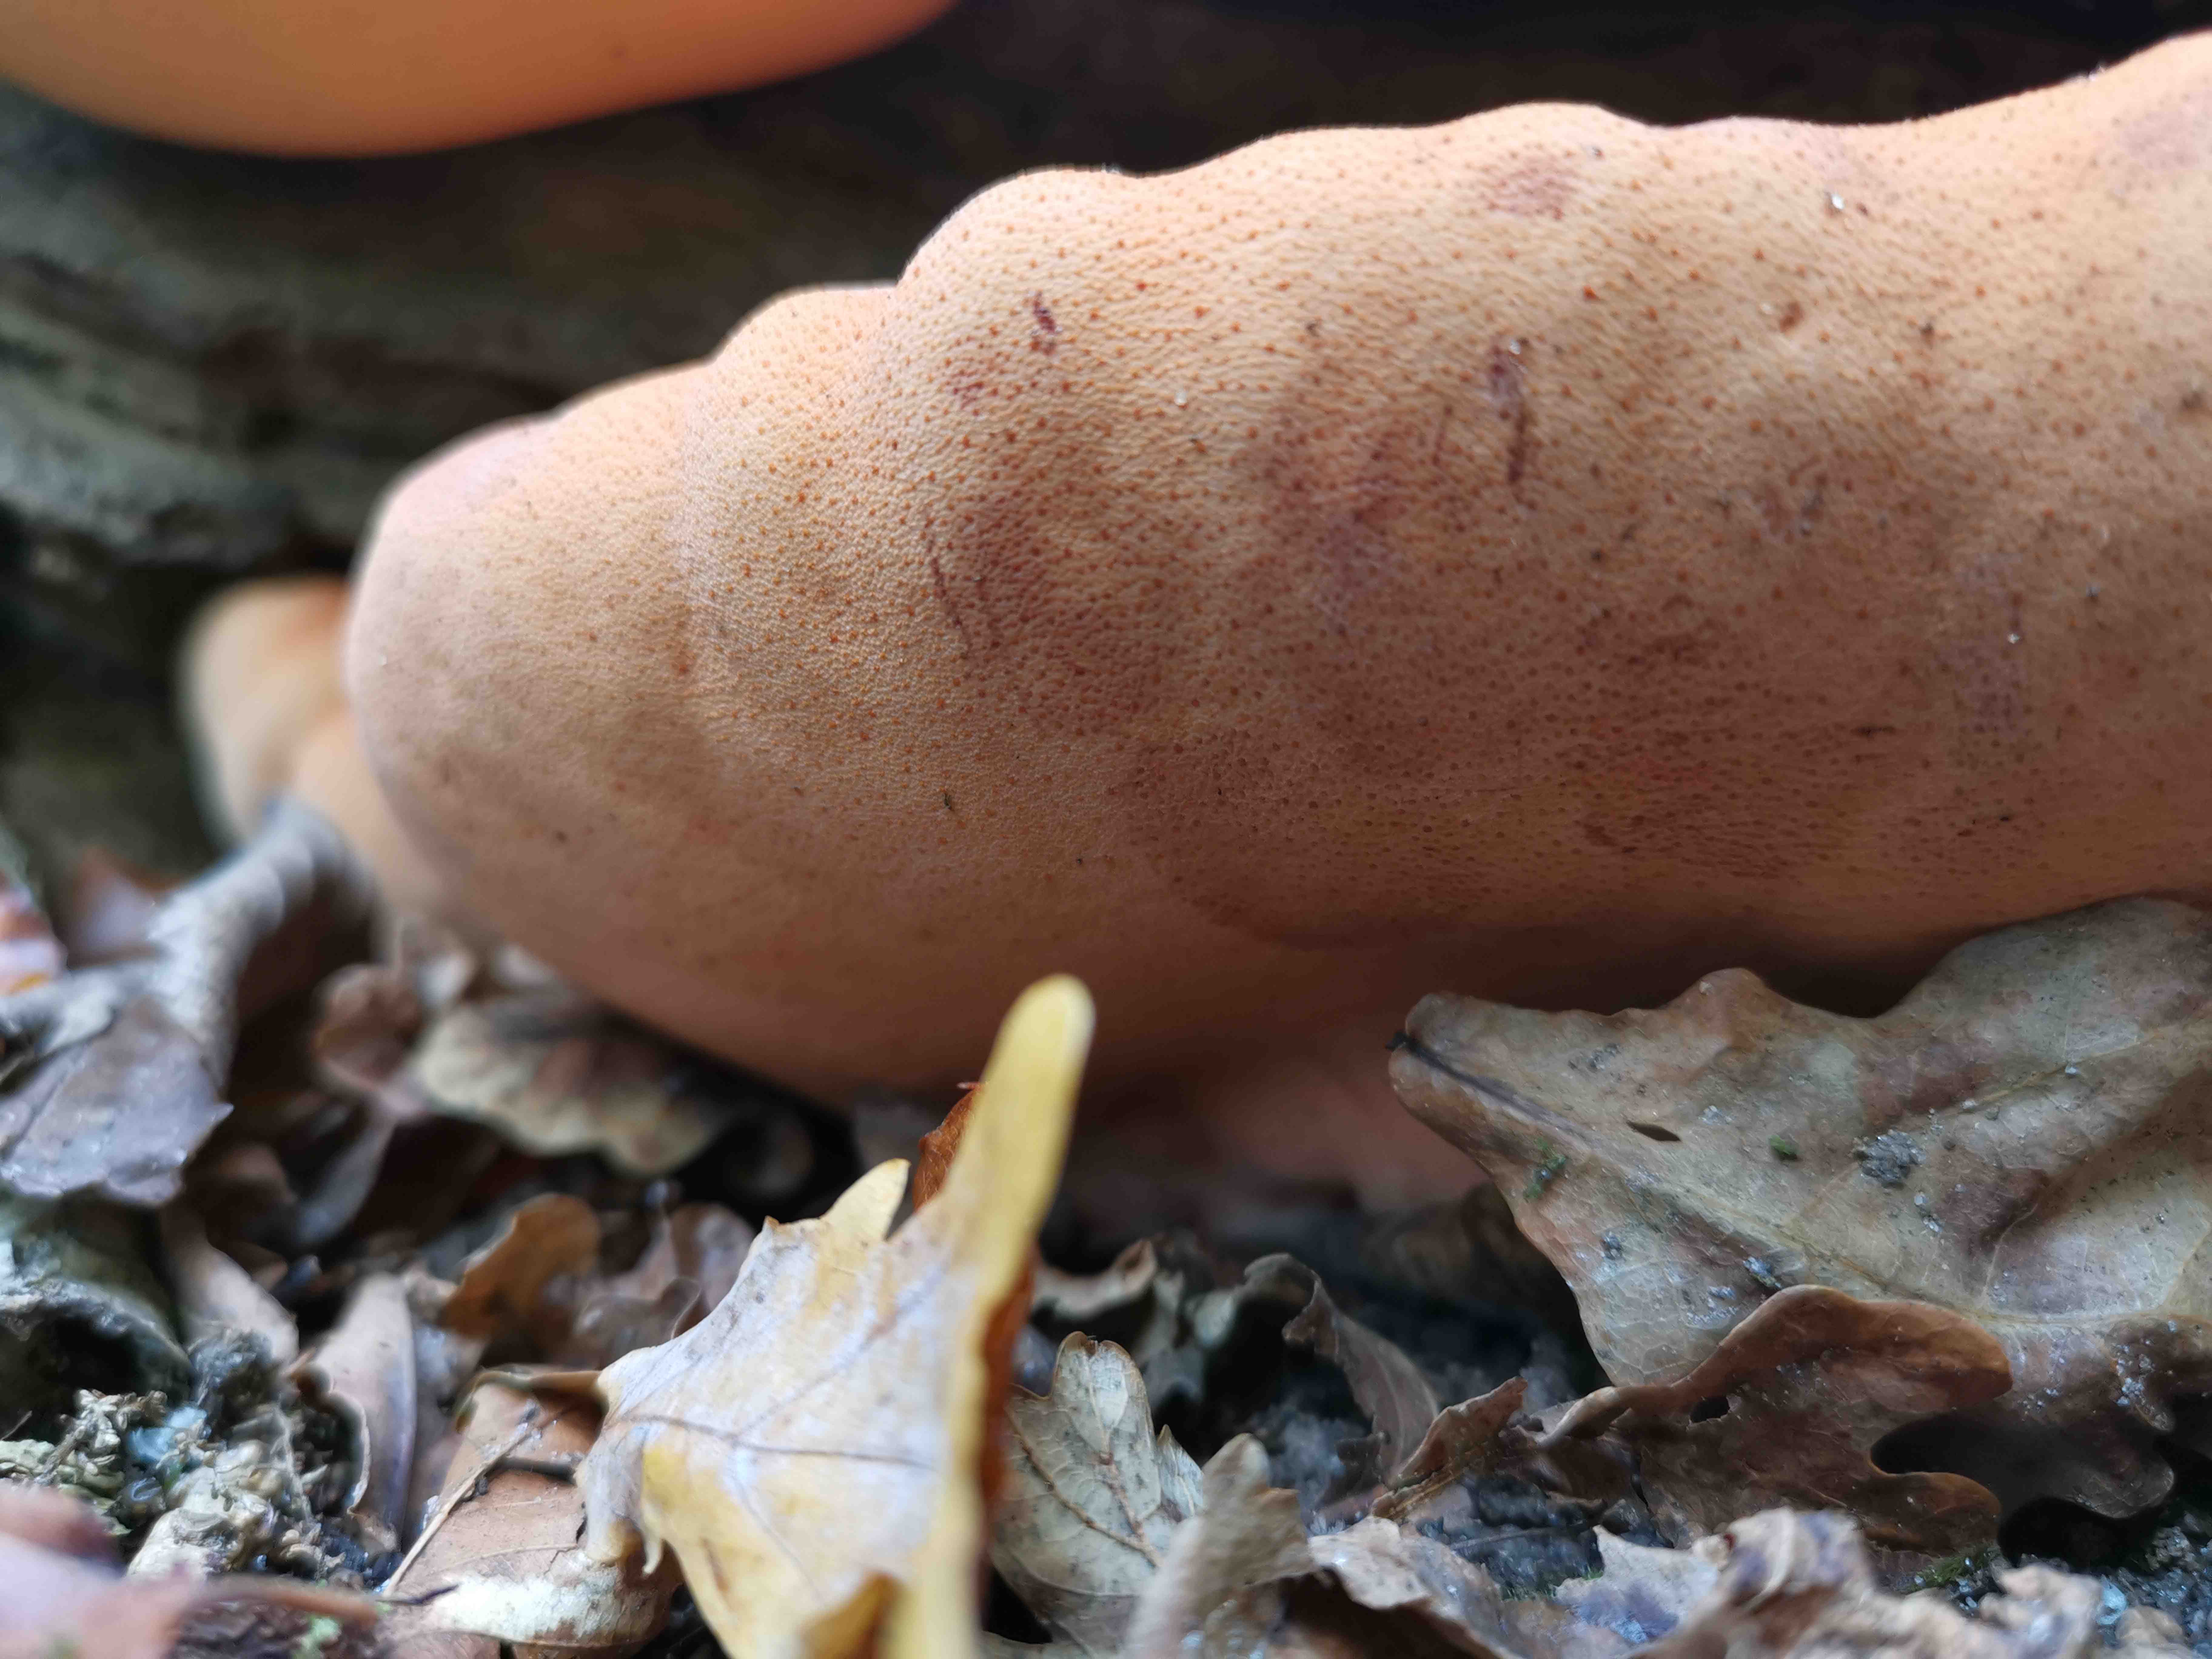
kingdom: Fungi
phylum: Basidiomycota
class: Agaricomycetes
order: Agaricales
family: Fistulinaceae
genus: Fistulina
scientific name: Fistulina hepatica
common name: oksetunge
